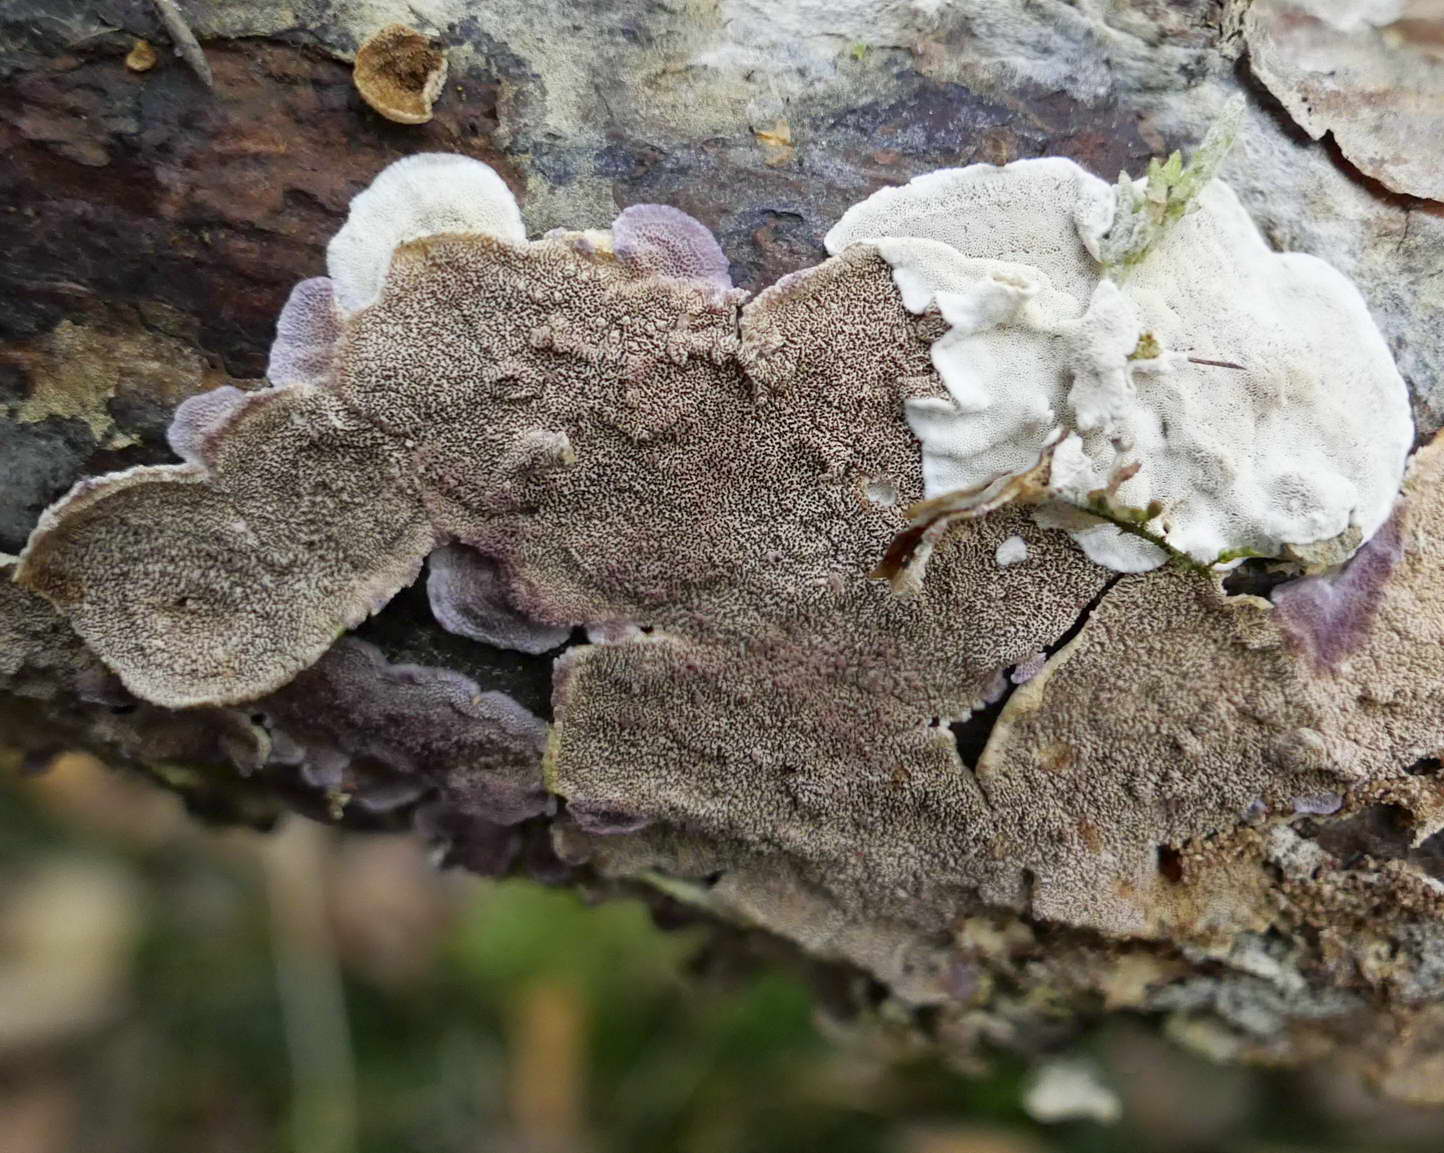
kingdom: Fungi
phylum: Basidiomycota
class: Agaricomycetes
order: Polyporales
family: Incrustoporiaceae
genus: Skeletocutis
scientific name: Skeletocutis carneogrisea
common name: rødgrå krystalporesvamp
